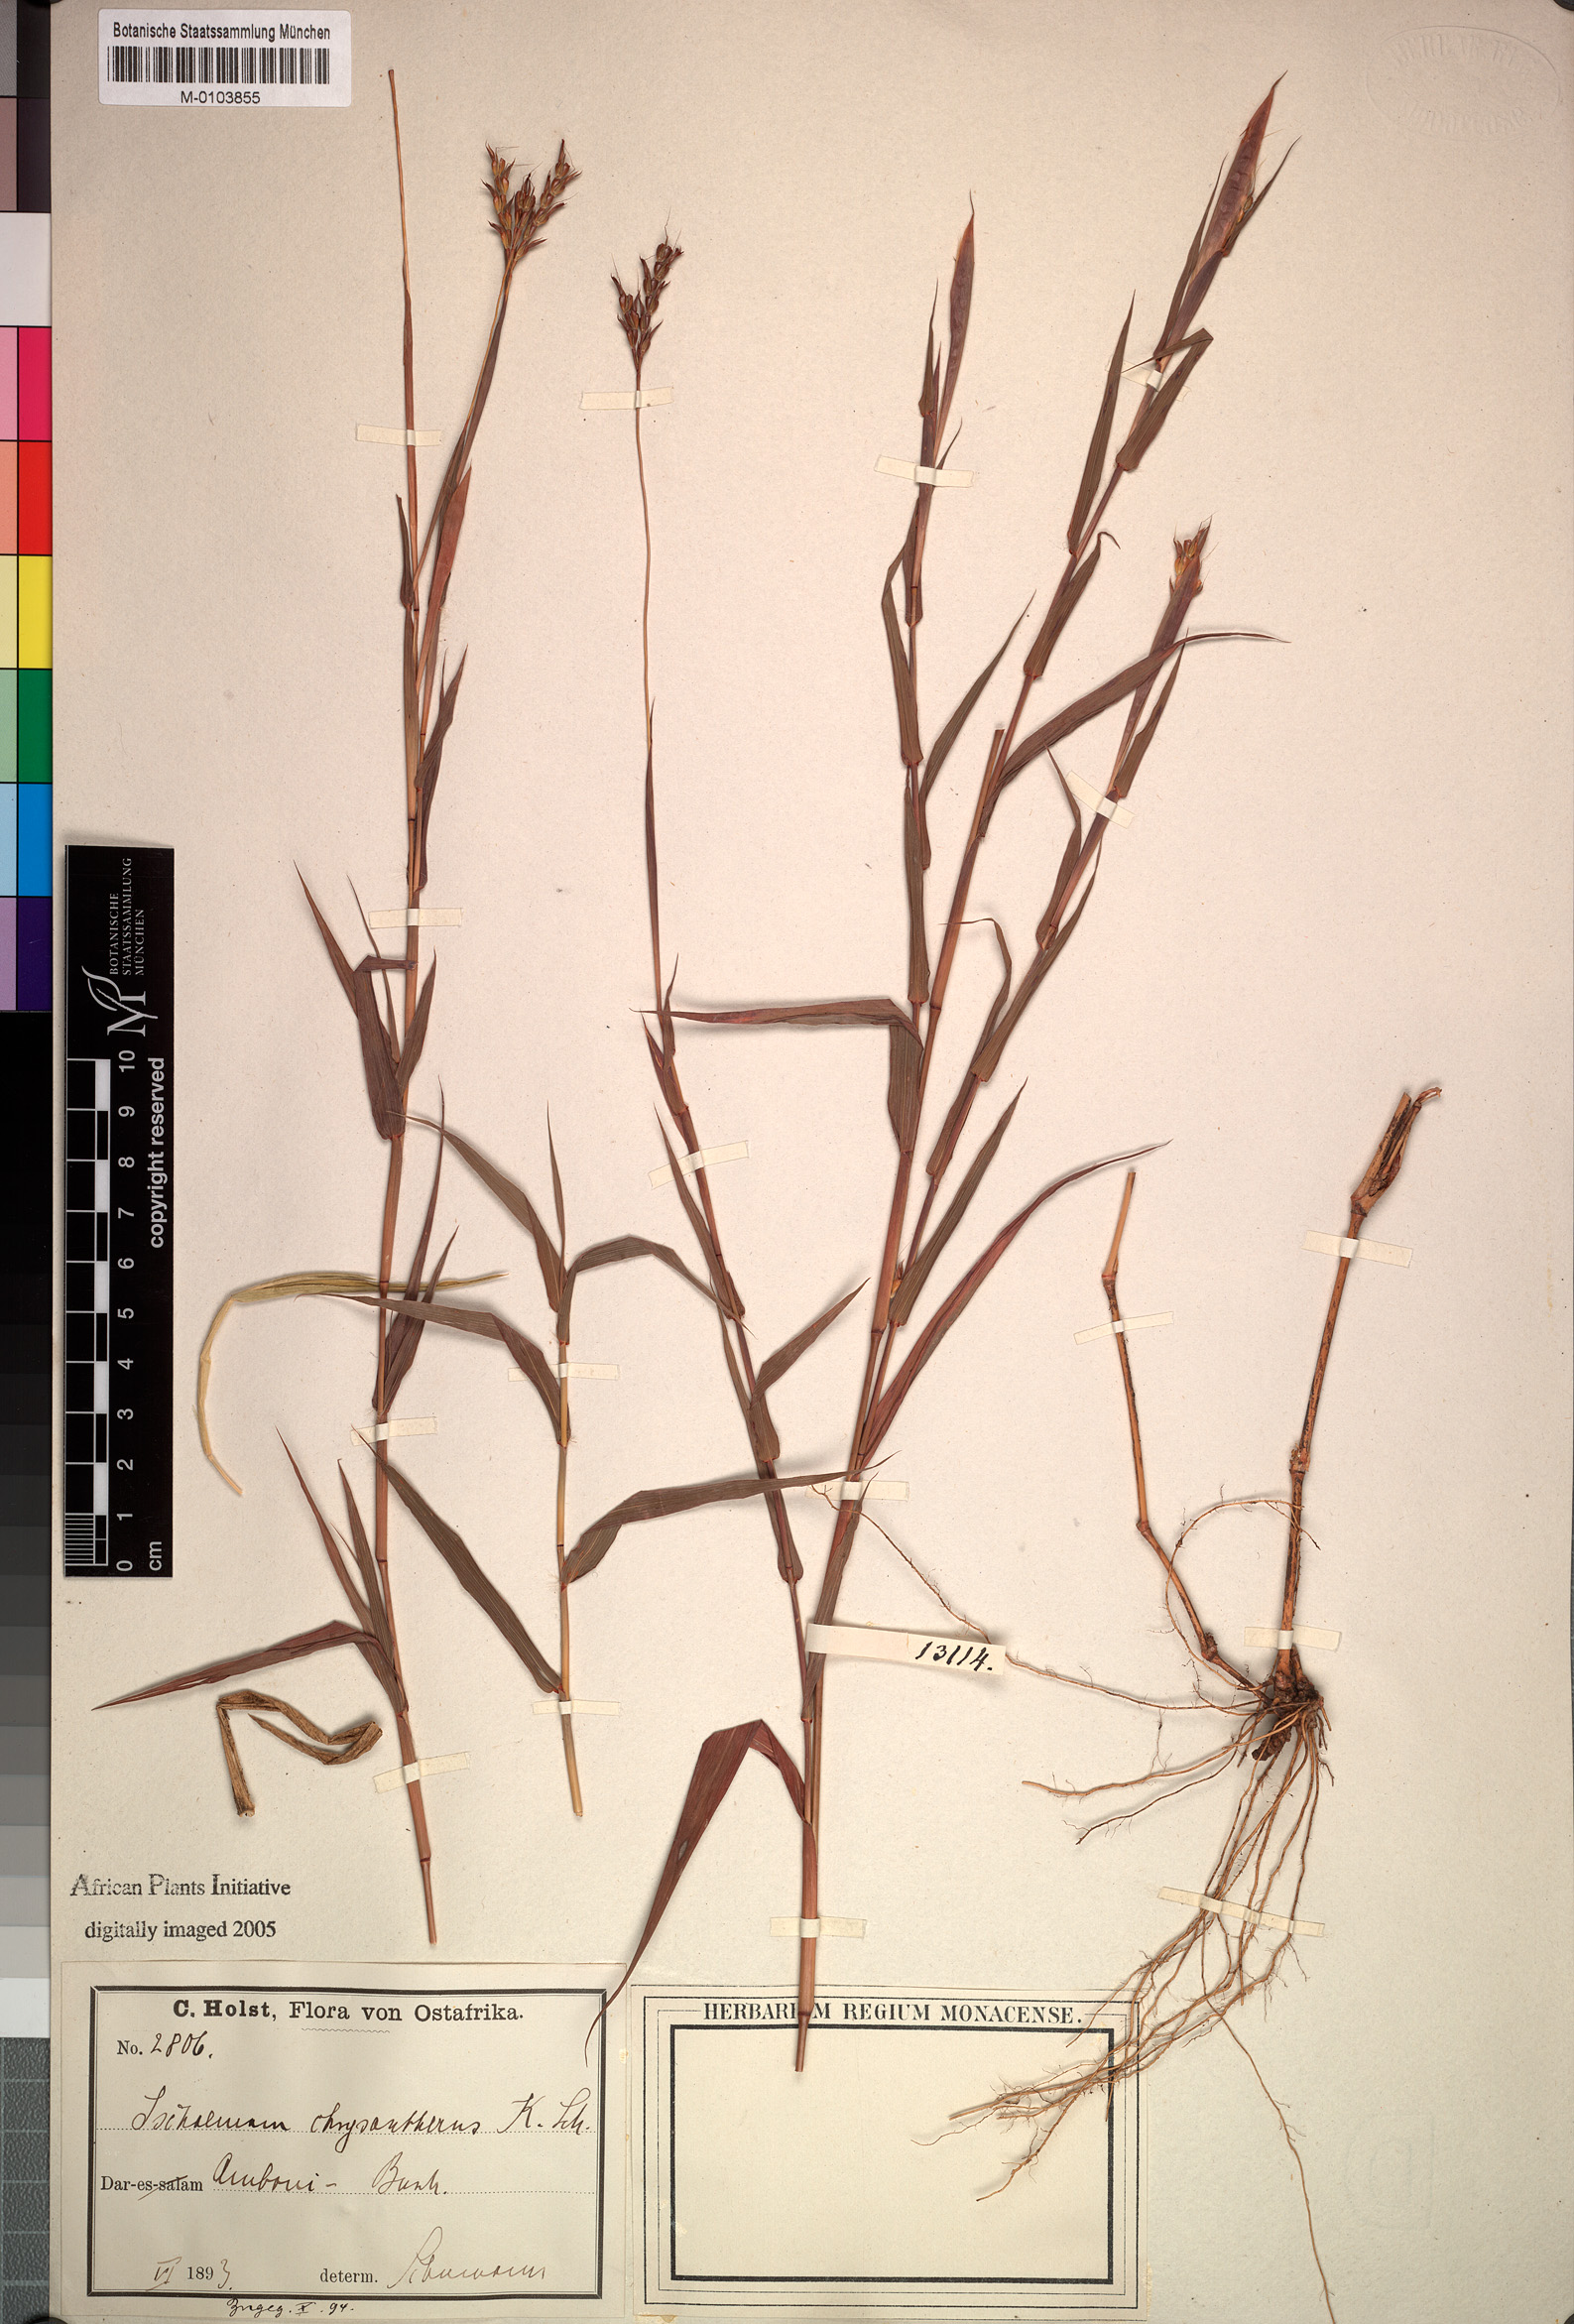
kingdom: Plantae
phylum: Tracheophyta
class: Liliopsida
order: Poales
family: Poaceae
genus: Andropogon
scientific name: Andropogon heterantherus
